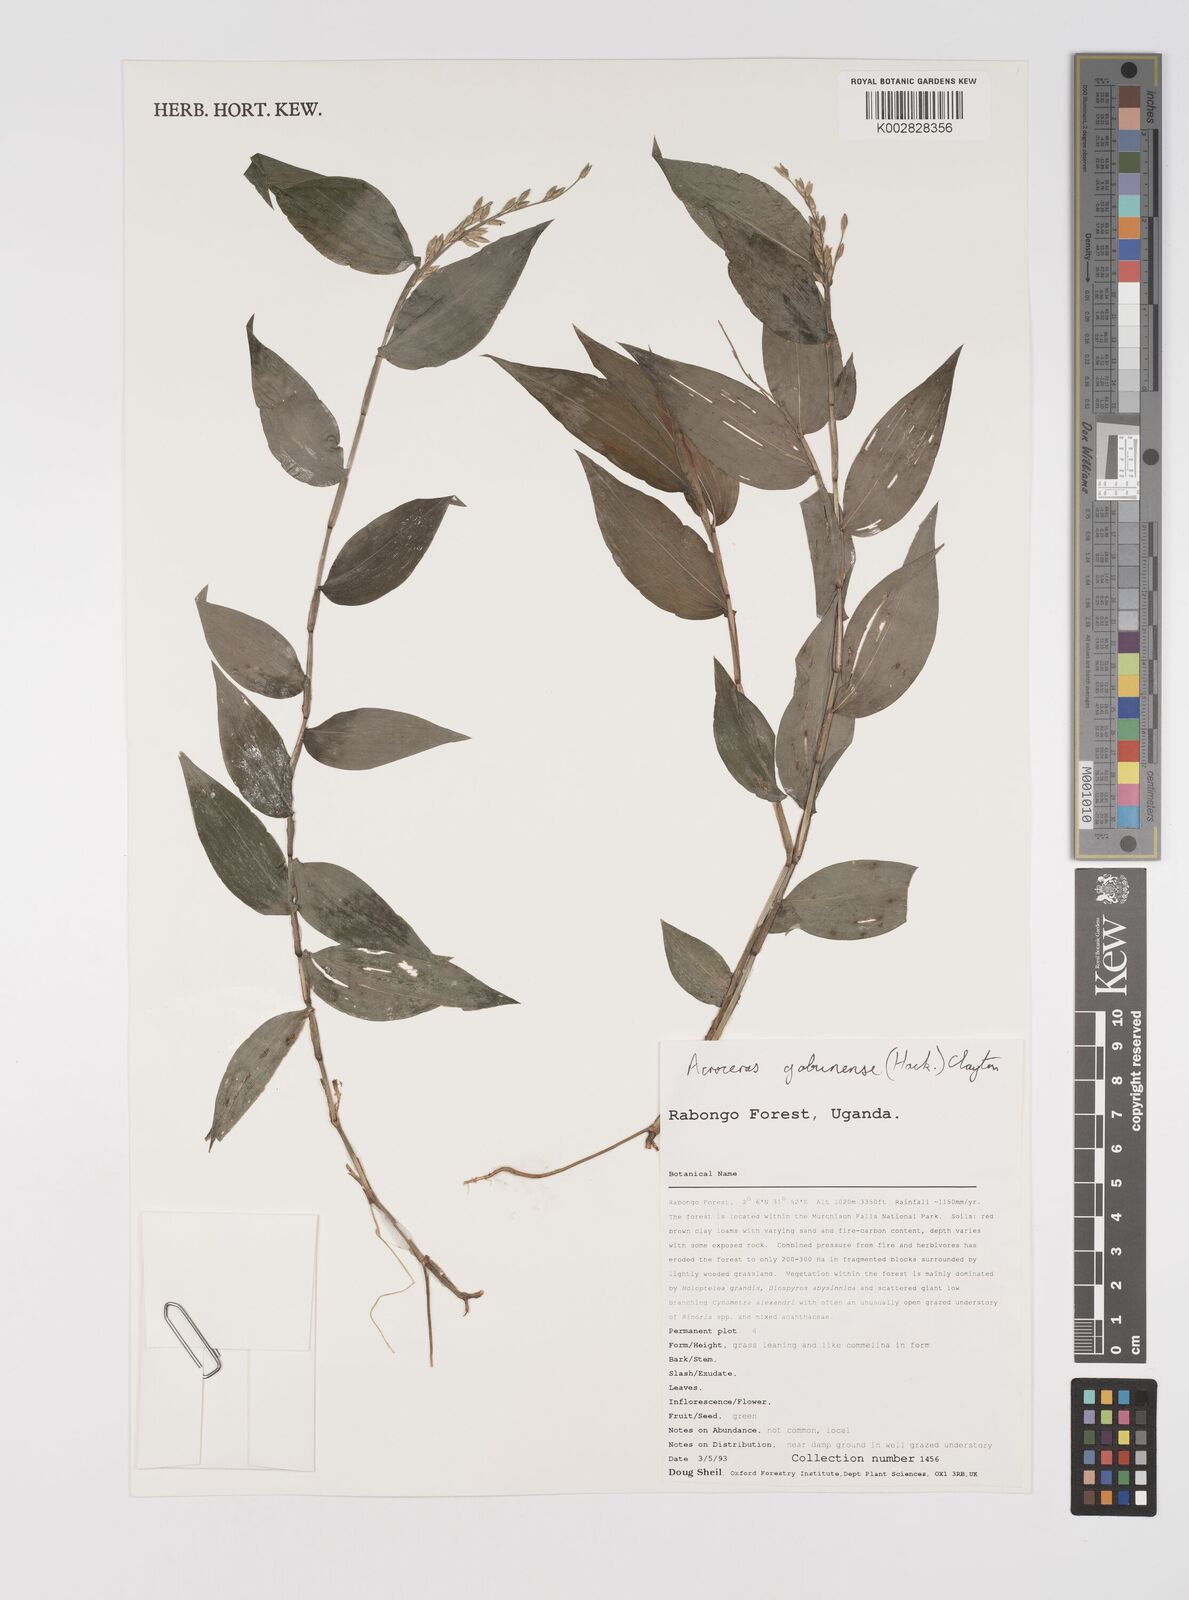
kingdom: Plantae
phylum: Tracheophyta
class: Liliopsida
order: Poales
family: Poaceae
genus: Acroceras
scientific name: Acroceras gabunense
